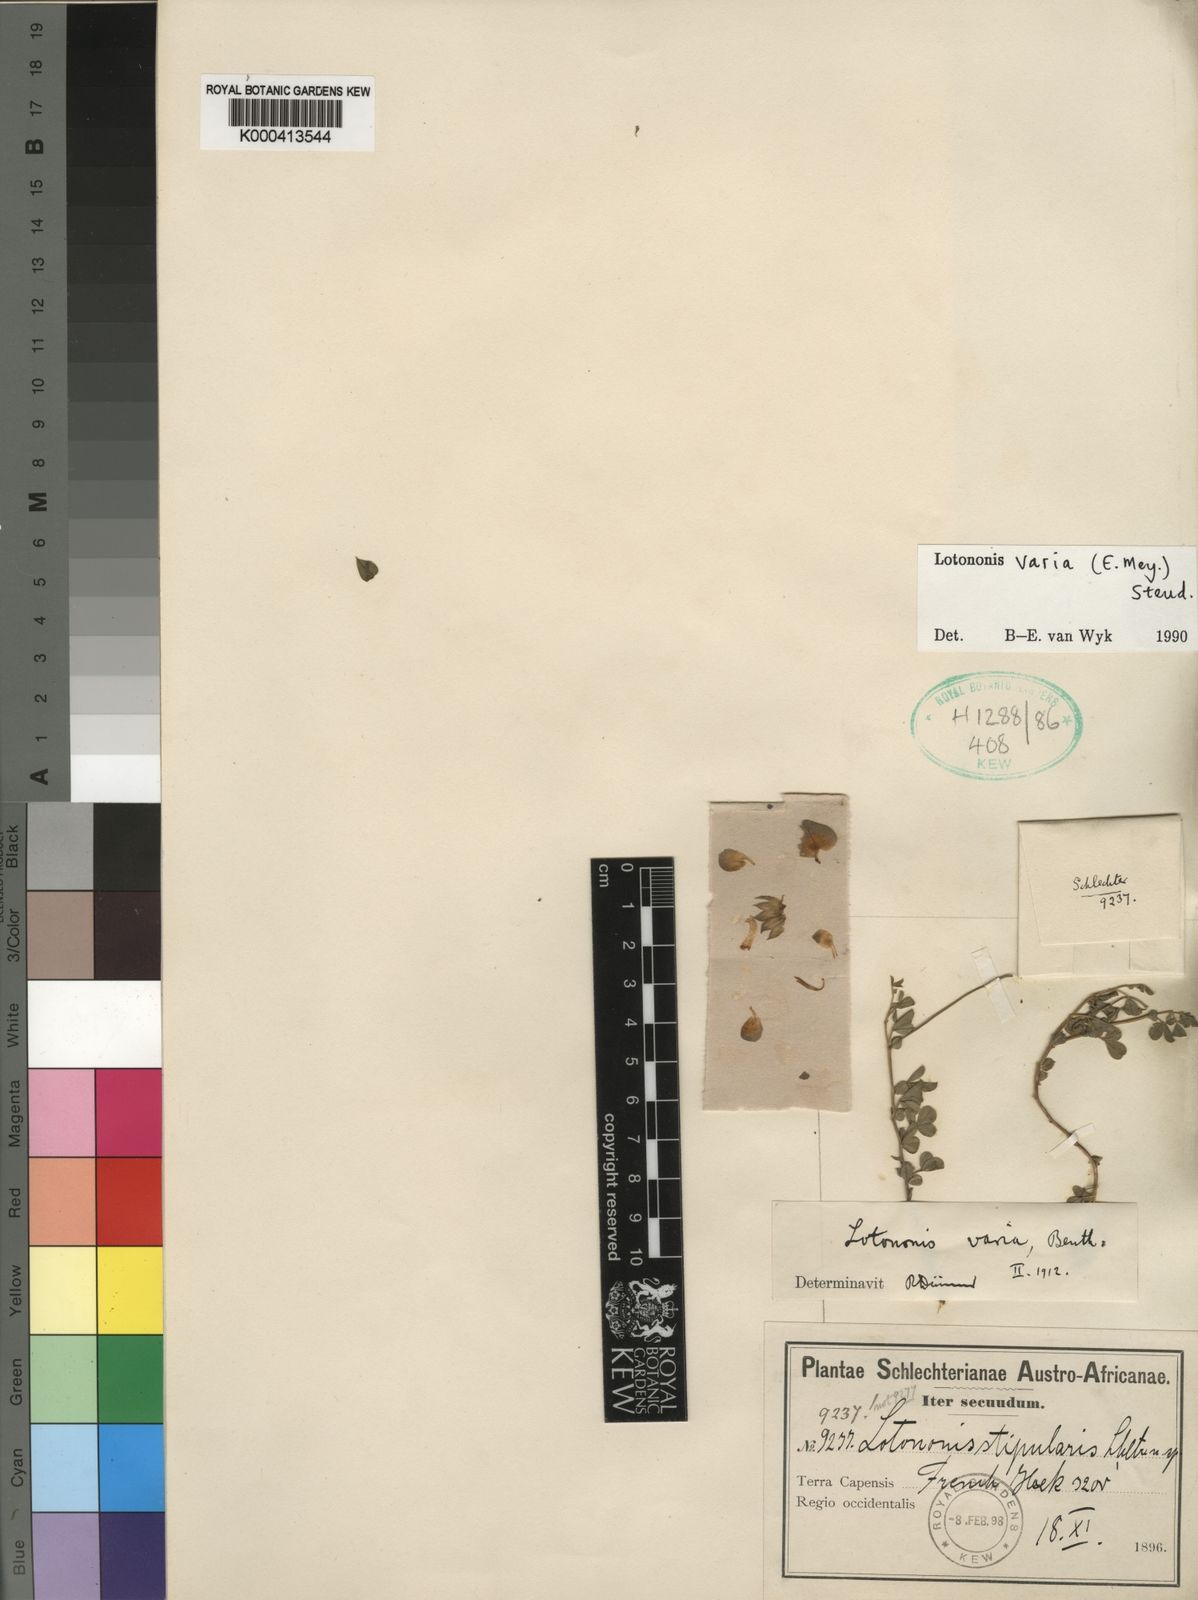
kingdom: Plantae
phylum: Tracheophyta
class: Magnoliopsida
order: Fabales
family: Fabaceae
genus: Lotononis
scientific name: Lotononis varia
